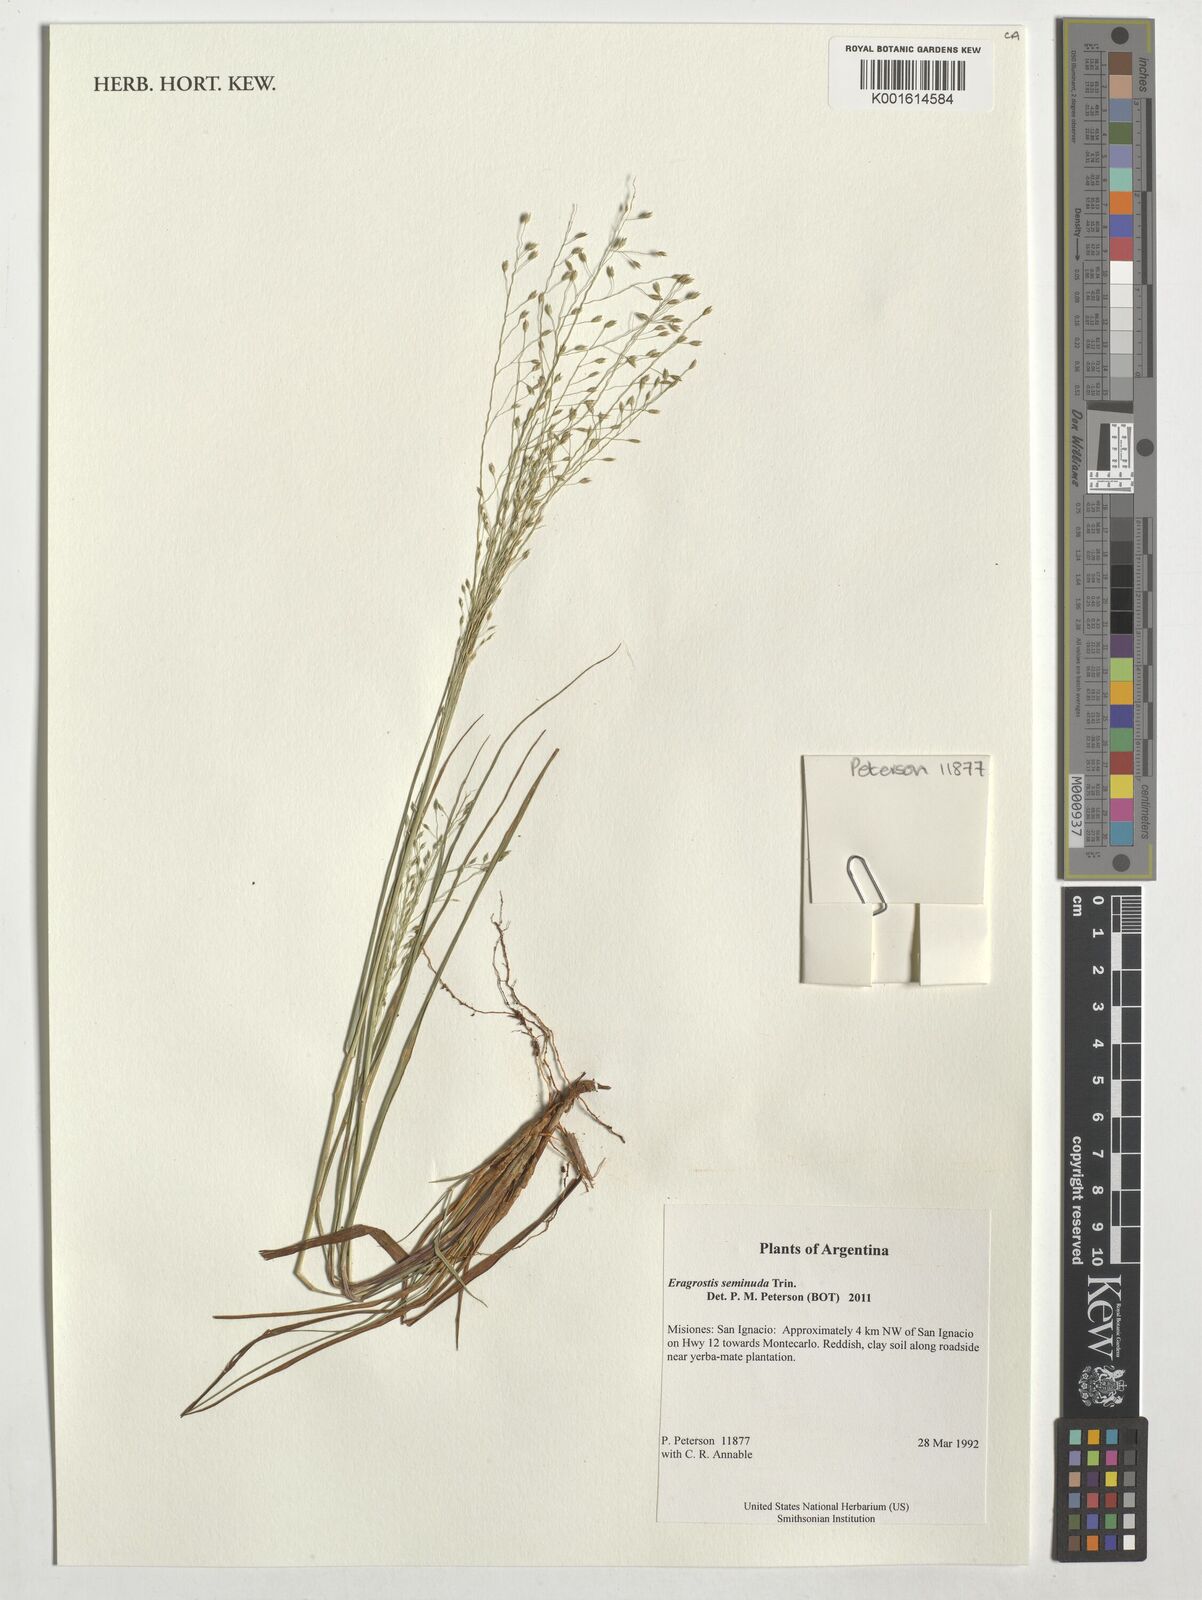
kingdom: Plantae
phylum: Tracheophyta
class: Liliopsida
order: Poales
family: Poaceae
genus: Eragrostis
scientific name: Eragrostis seminuda
